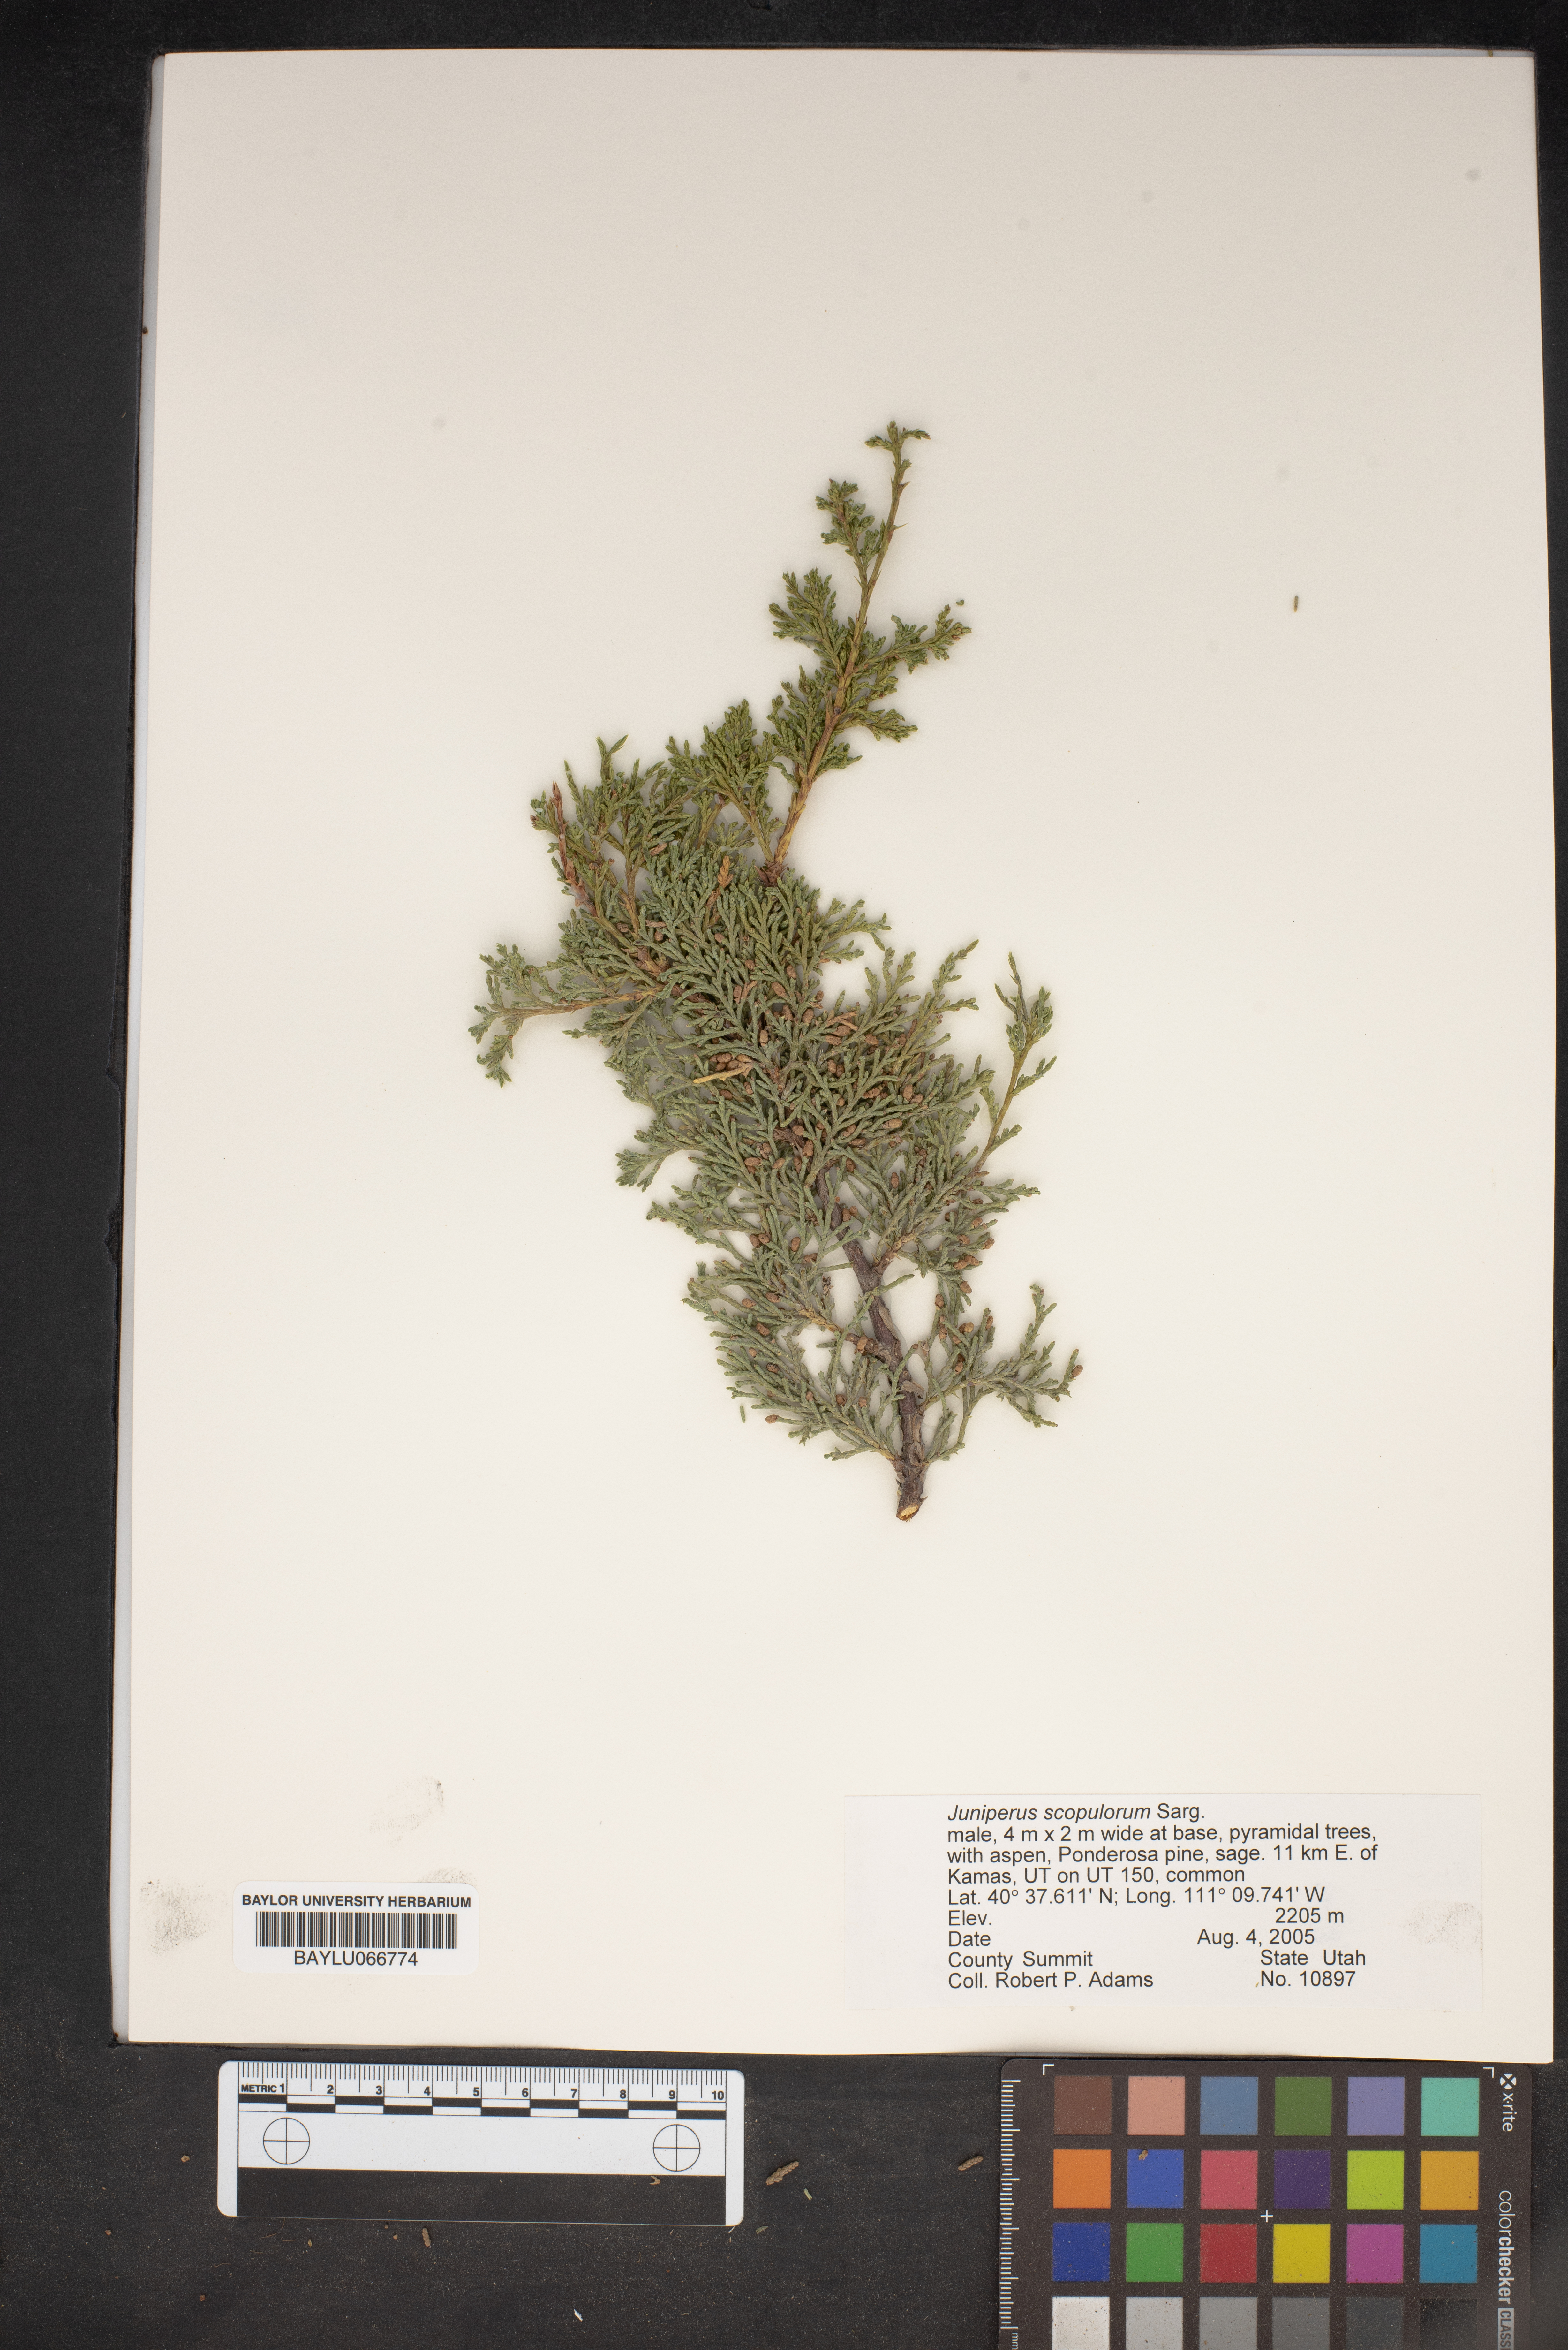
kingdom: Plantae
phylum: Tracheophyta
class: Pinopsida
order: Pinales
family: Cupressaceae
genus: Juniperus
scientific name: Juniperus scopulorum
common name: Rocky mountain juniper
